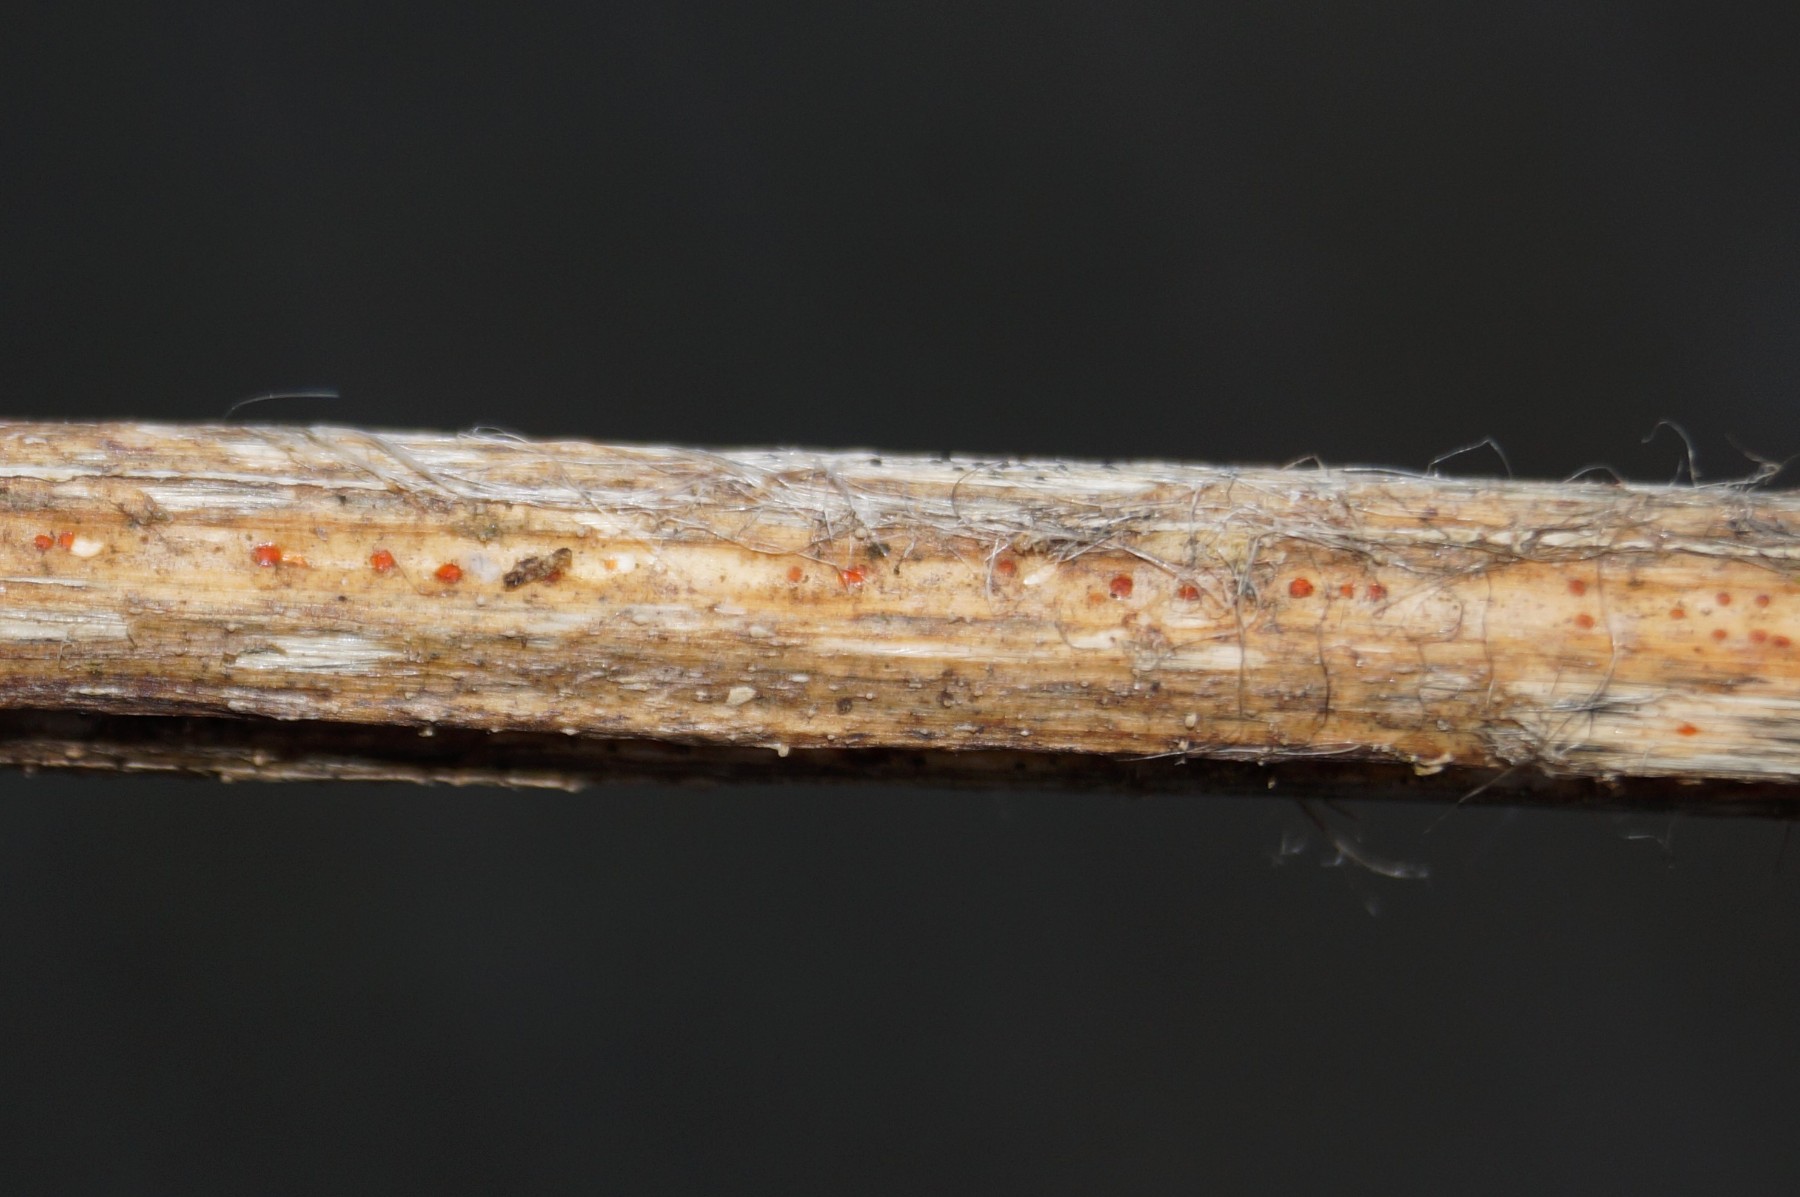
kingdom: Fungi
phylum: Ascomycota
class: Leotiomycetes
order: Helotiales
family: Calloriaceae
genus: Calloria
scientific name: Calloria urticae
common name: nælde-orangeskive
